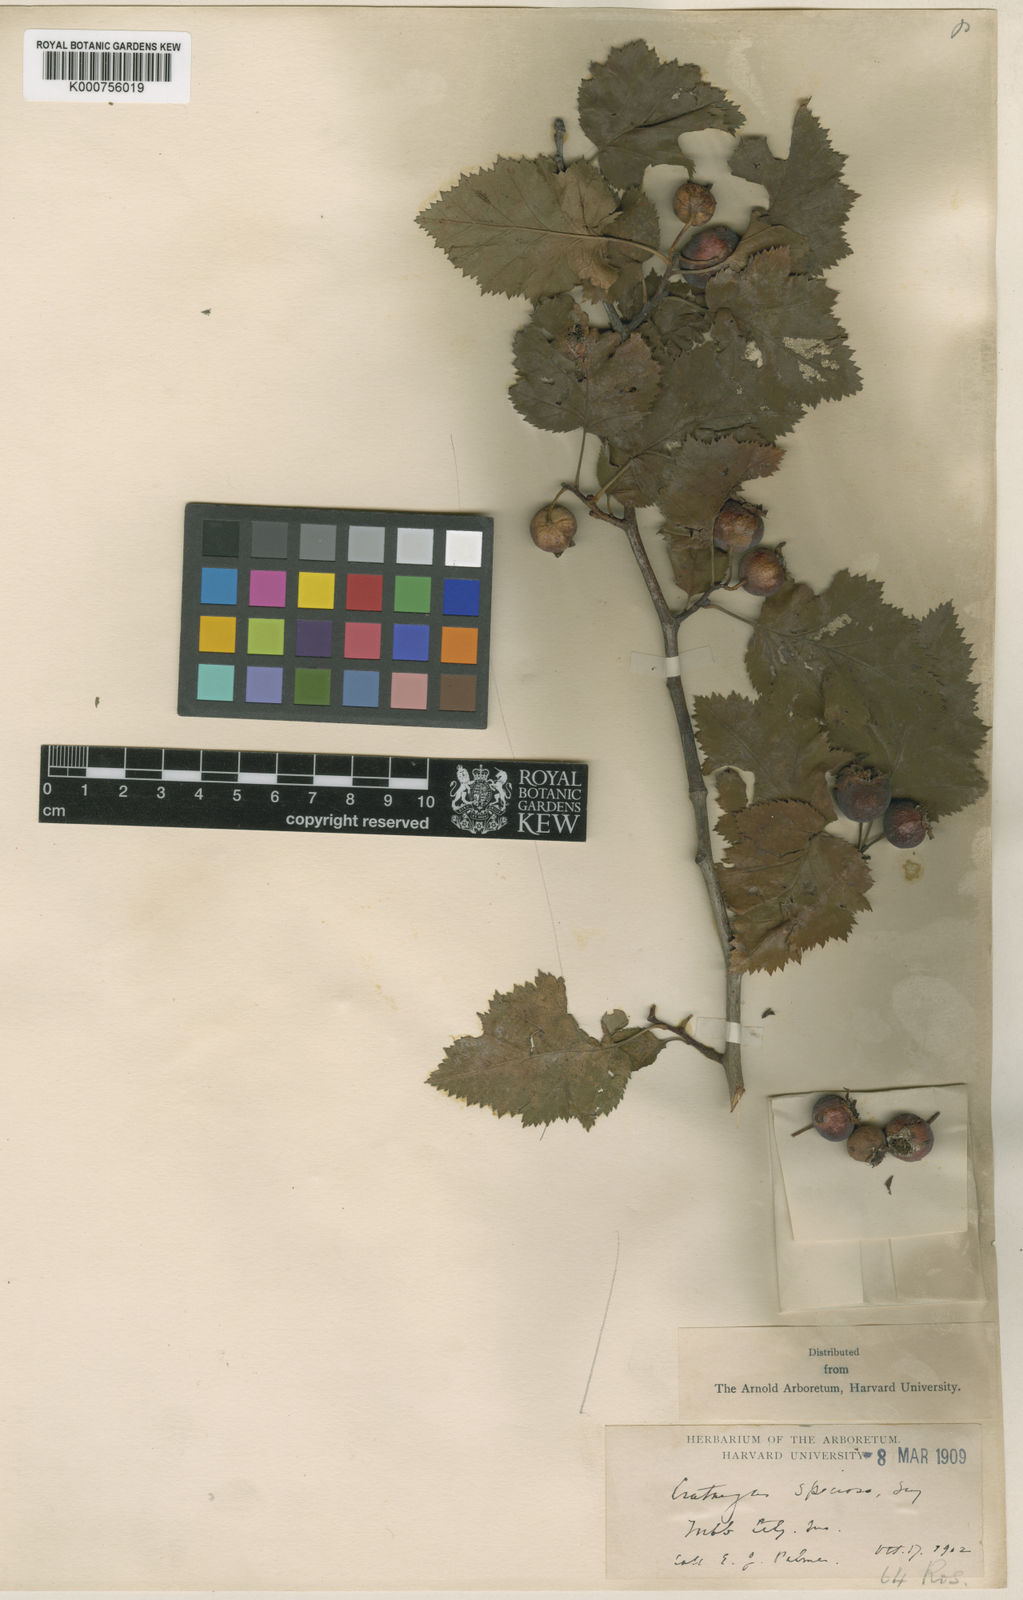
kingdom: Plantae
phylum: Tracheophyta
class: Magnoliopsida
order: Rosales
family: Rosaceae
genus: Crataegus
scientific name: Crataegus coccinioides
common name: Large-flowered cockspurthorn
